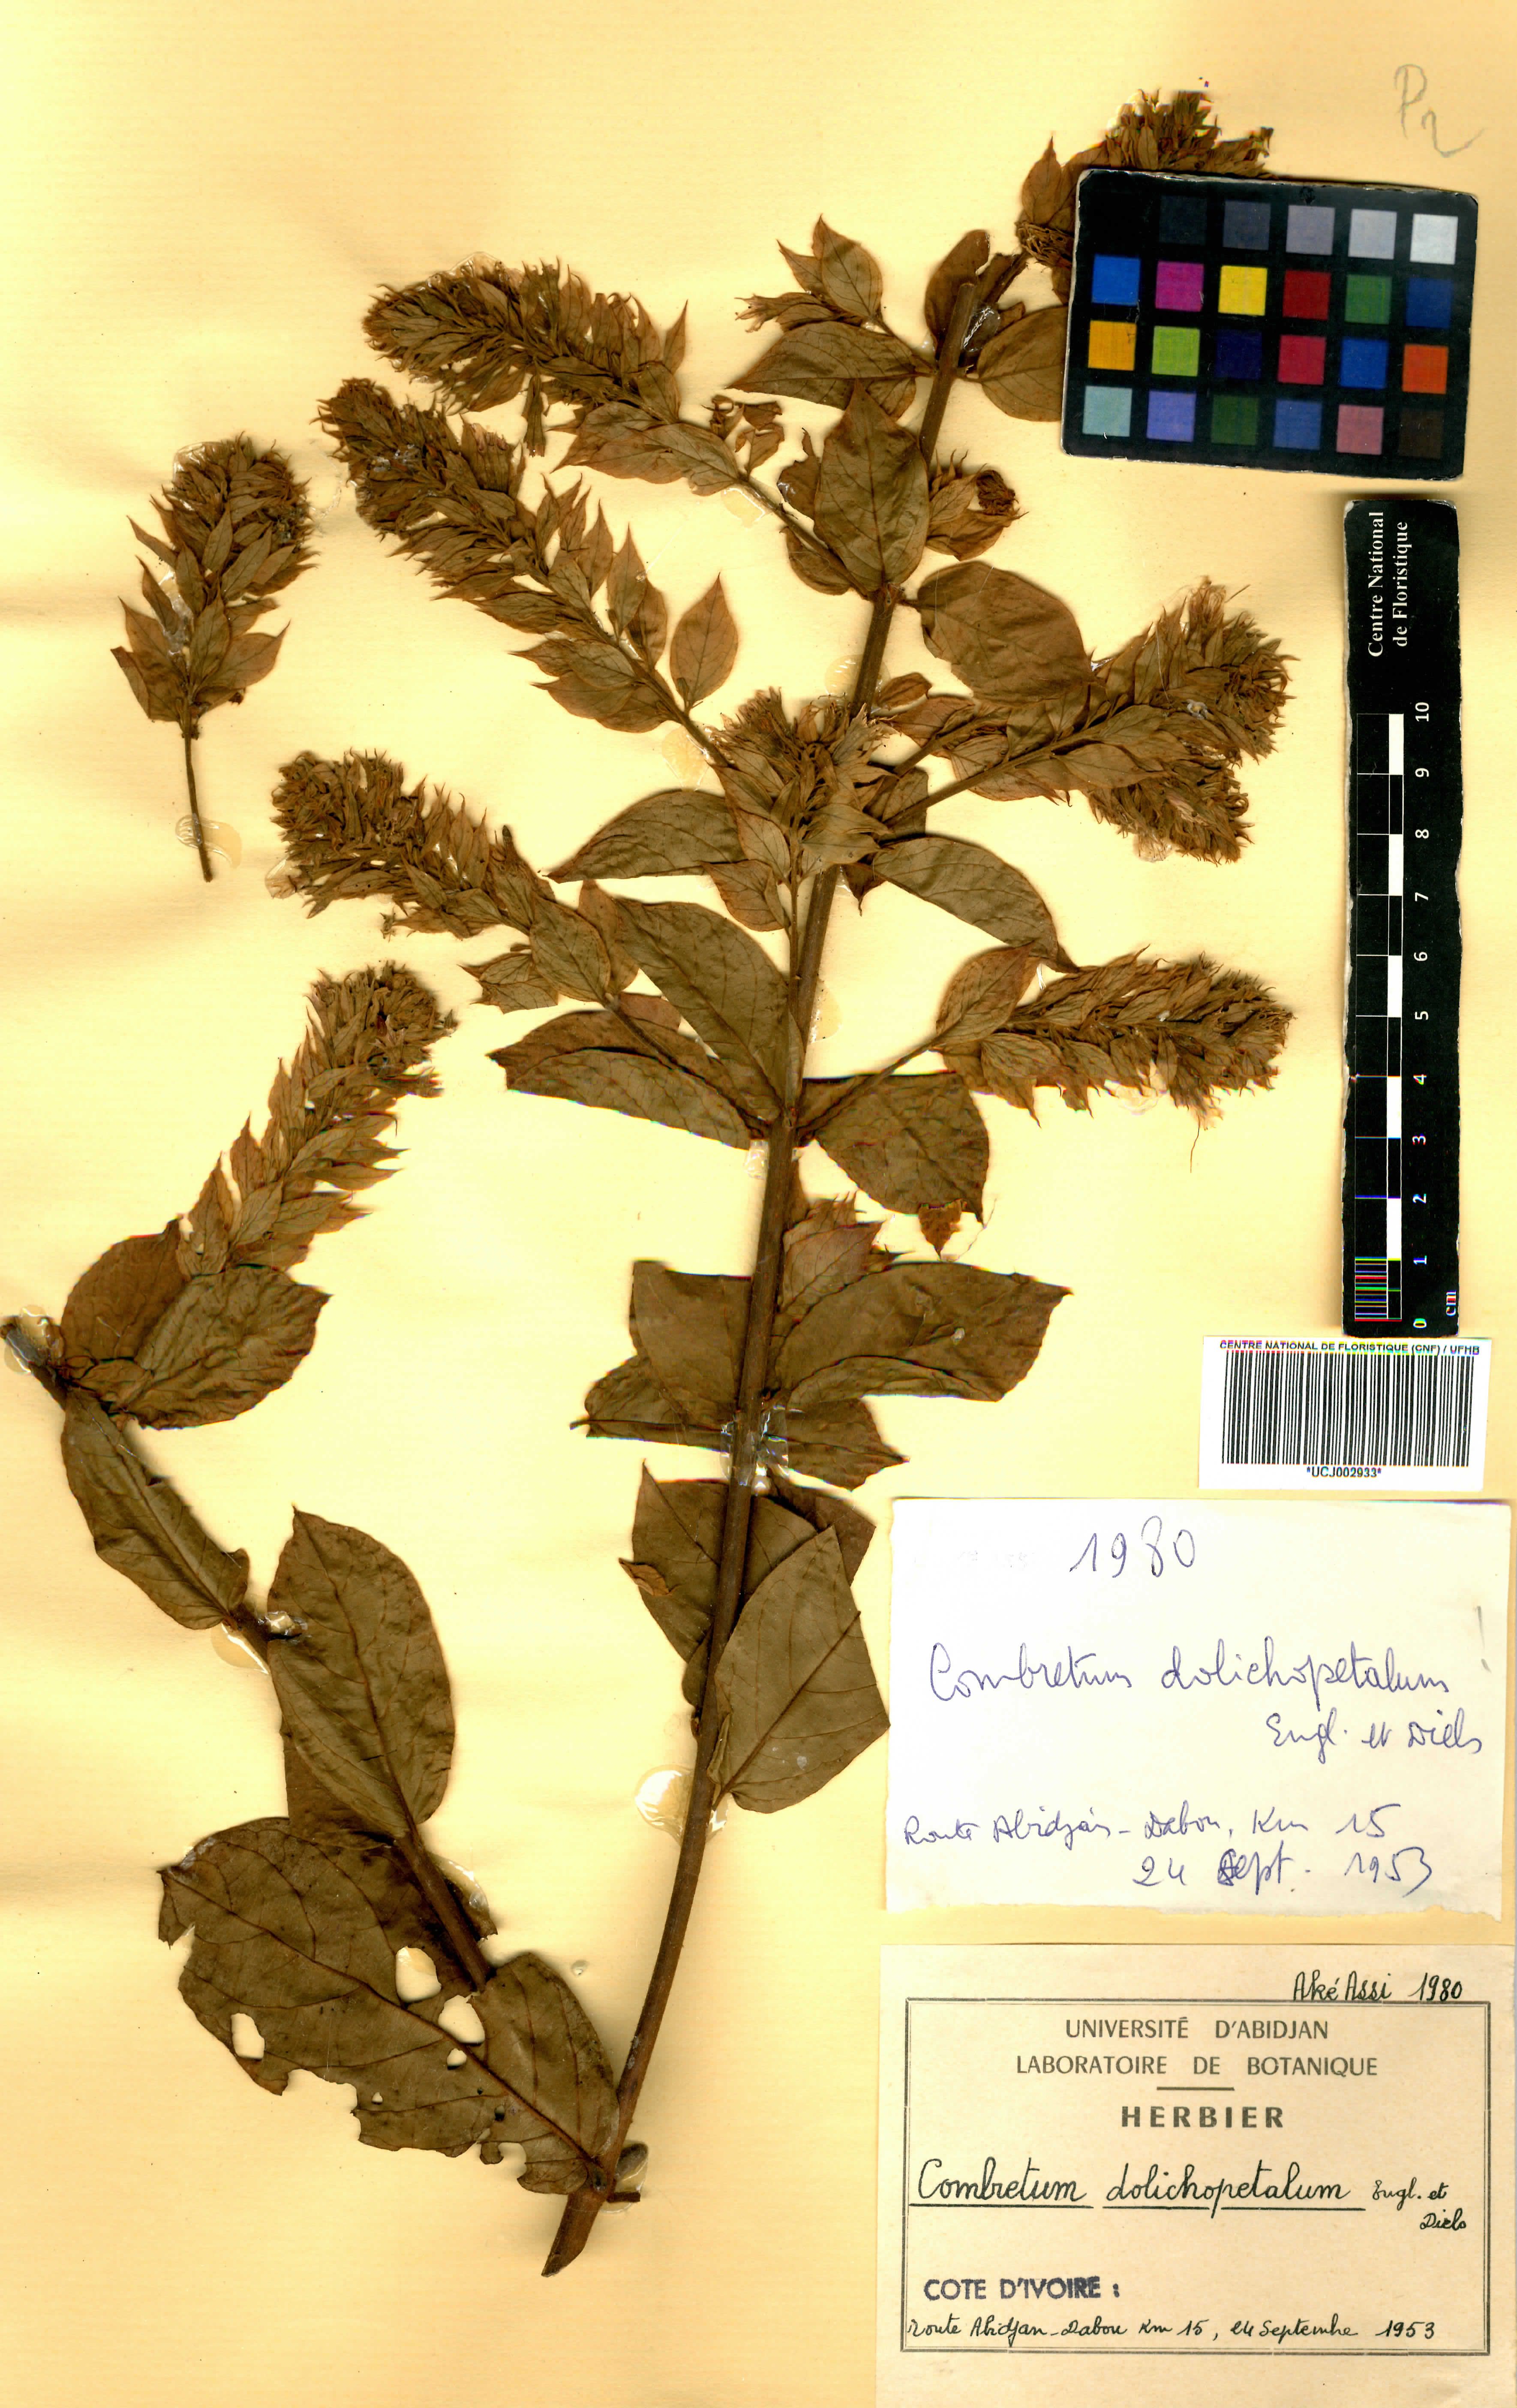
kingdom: Plantae
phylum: Tracheophyta
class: Magnoliopsida
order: Myrtales
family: Combretaceae
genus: Combretum
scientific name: Combretum comosum
